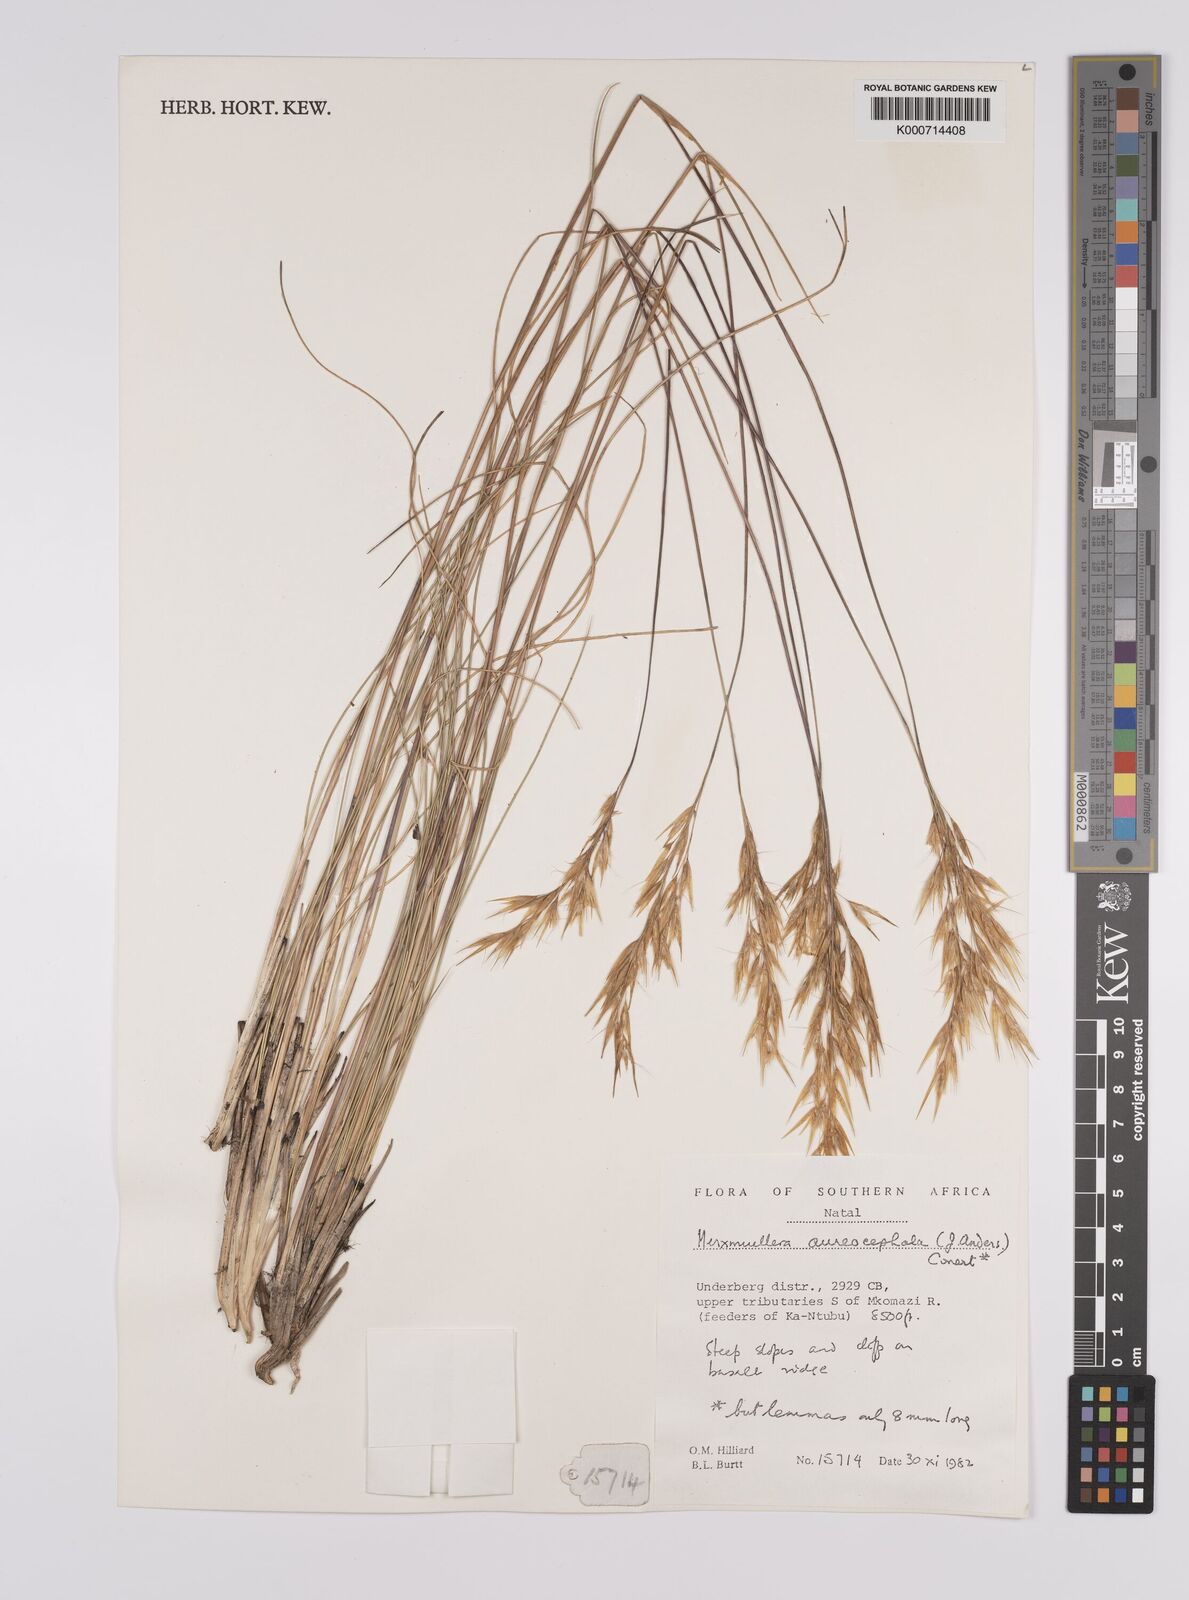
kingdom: Plantae
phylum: Tracheophyta
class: Liliopsida
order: Poales
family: Poaceae
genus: Rytidosperma
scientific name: Rytidosperma
